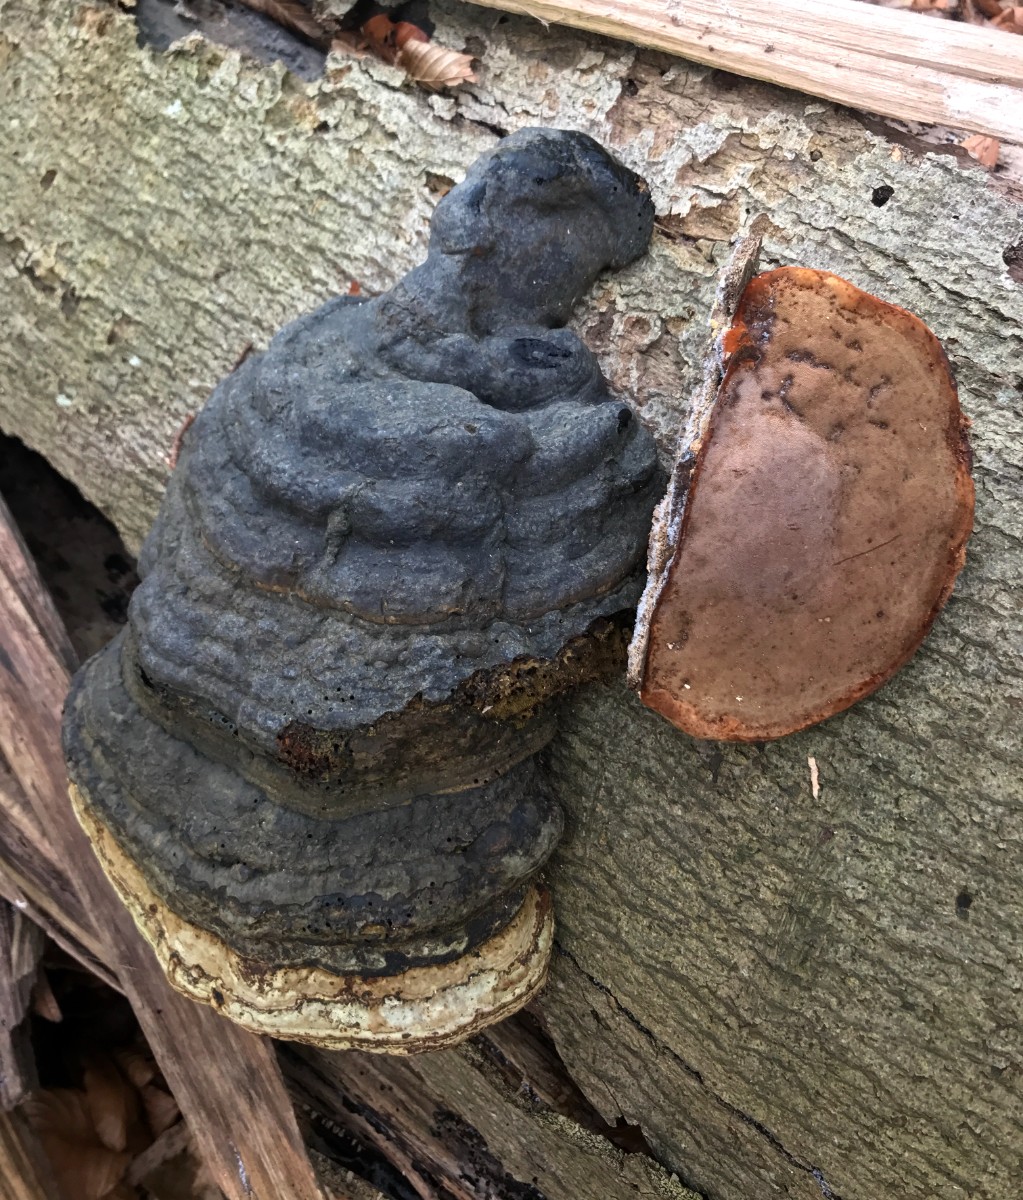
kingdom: Fungi
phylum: Basidiomycota
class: Agaricomycetes
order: Polyporales
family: Polyporaceae
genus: Fomes
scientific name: Fomes fomentarius
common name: tøndersvamp
